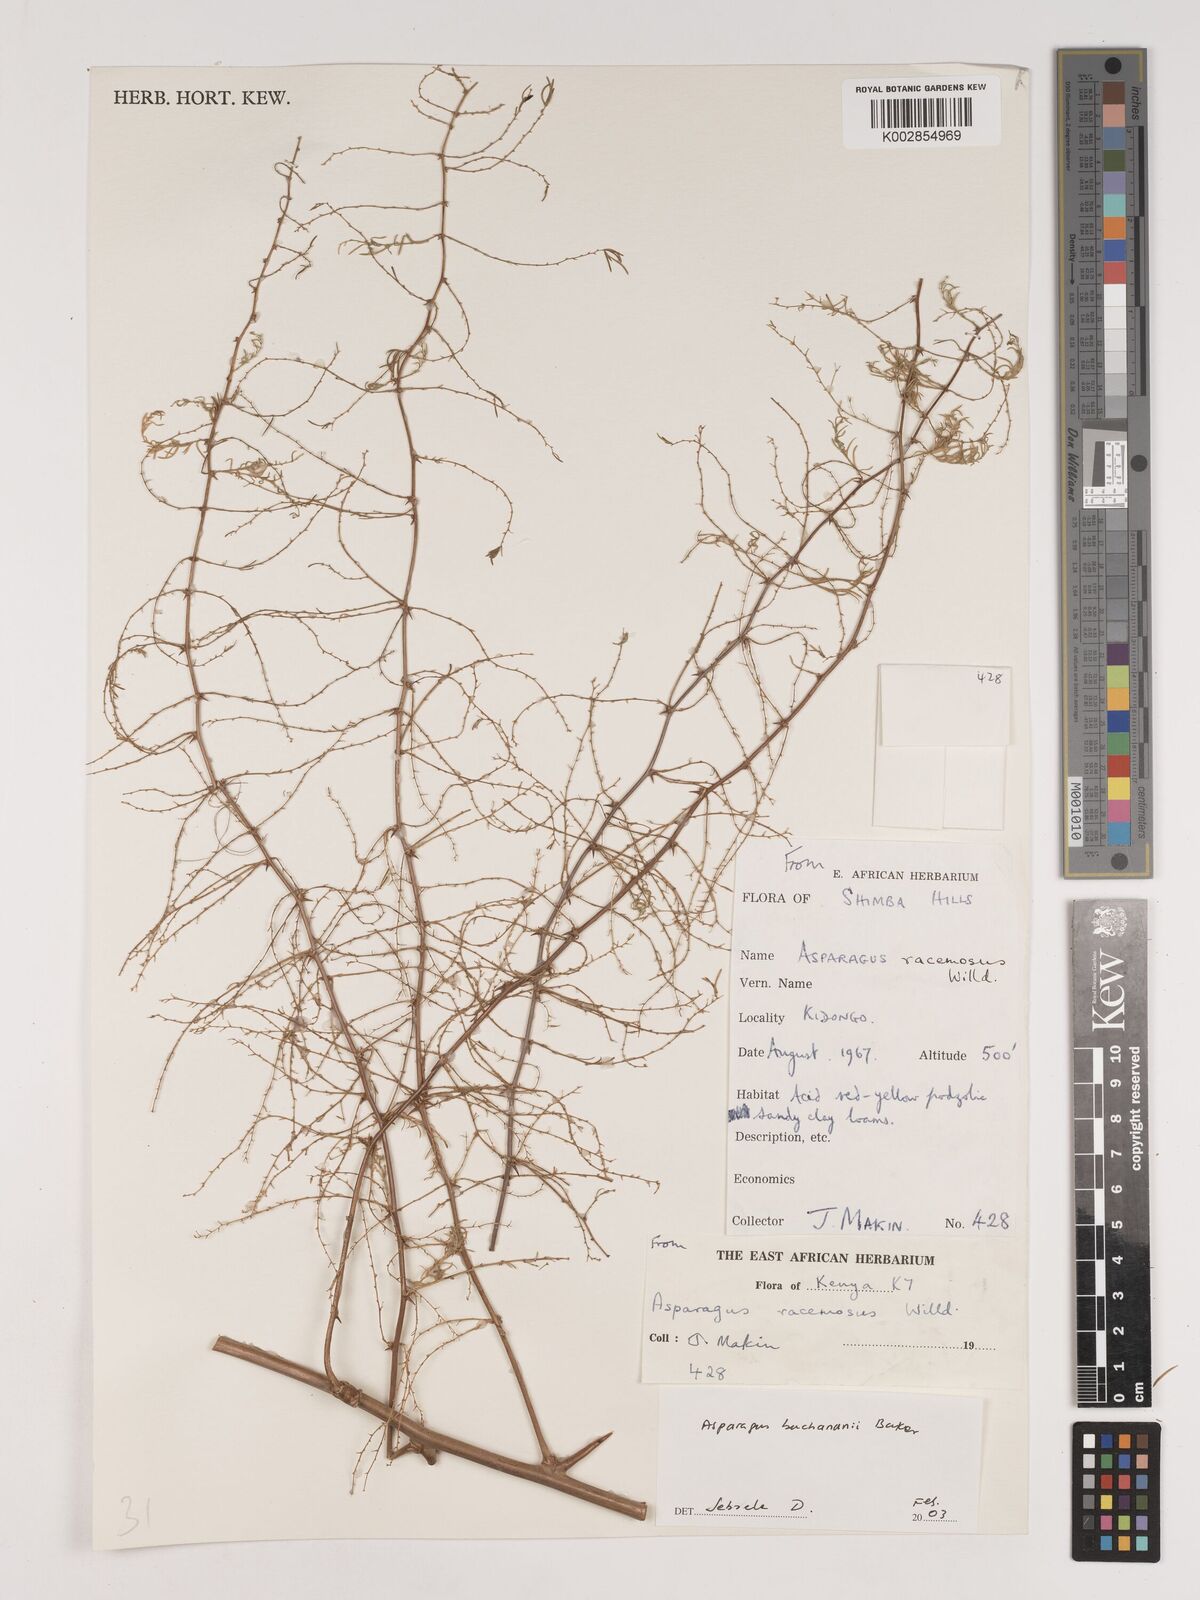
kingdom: Plantae
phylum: Tracheophyta
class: Liliopsida
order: Asparagales
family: Asparagaceae
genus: Asparagus
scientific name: Asparagus buchananii
